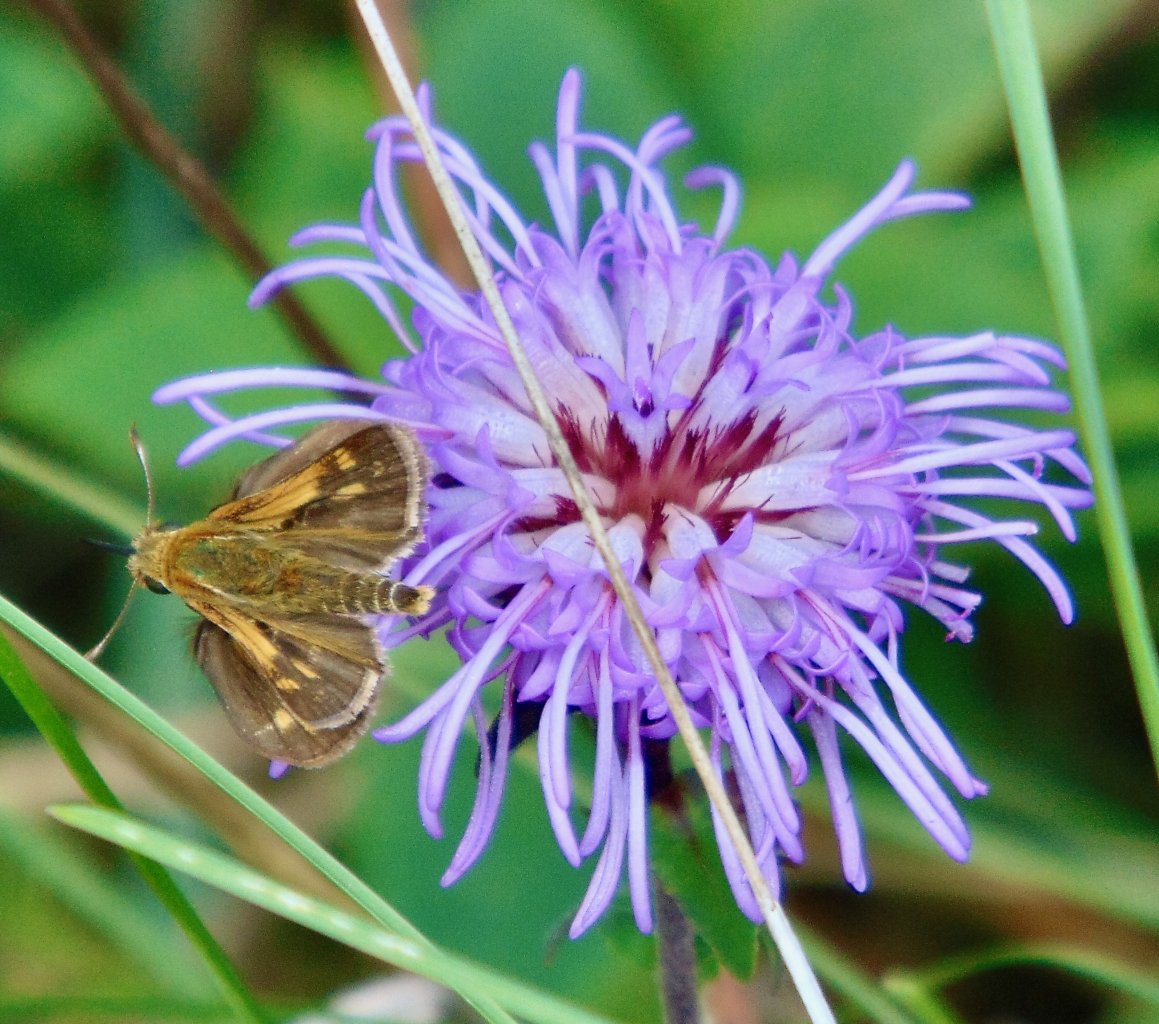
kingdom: Animalia
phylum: Arthropoda
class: Insecta
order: Lepidoptera
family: Hesperiidae
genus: Polites
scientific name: Polites coras
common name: Peck's Skipper
